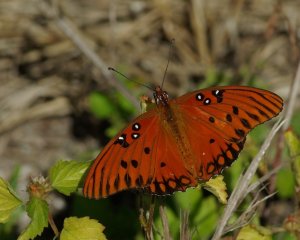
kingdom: Animalia
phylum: Arthropoda
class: Insecta
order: Lepidoptera
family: Nymphalidae
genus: Dione
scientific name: Dione vanillae
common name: Gulf Fritillary
